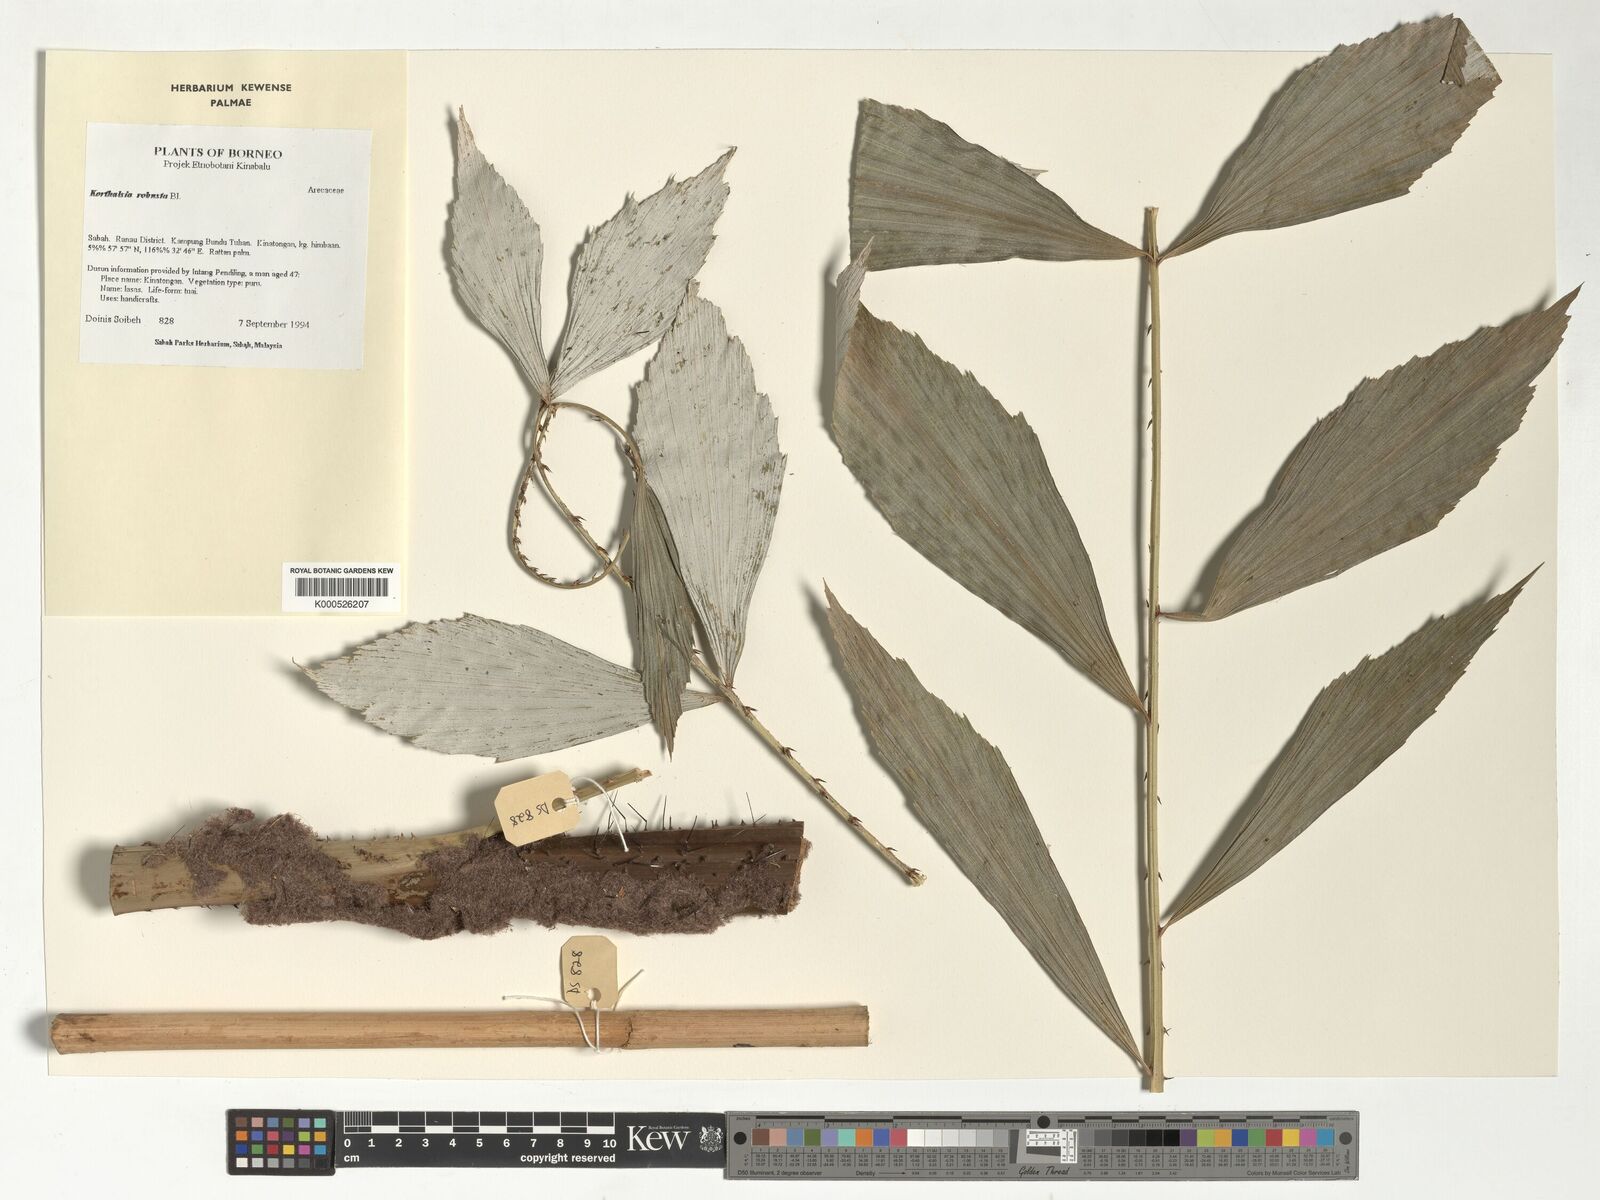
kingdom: Plantae
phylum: Tracheophyta
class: Liliopsida
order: Arecales
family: Arecaceae
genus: Korthalsia
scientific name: Korthalsia robusta
